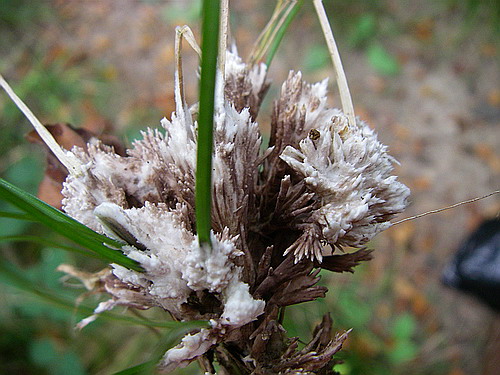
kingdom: Fungi
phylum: Basidiomycota
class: Agaricomycetes
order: Thelephorales
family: Thelephoraceae
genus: Thelephora
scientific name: Thelephora penicillata
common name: fladtrådt frynsesvamp
